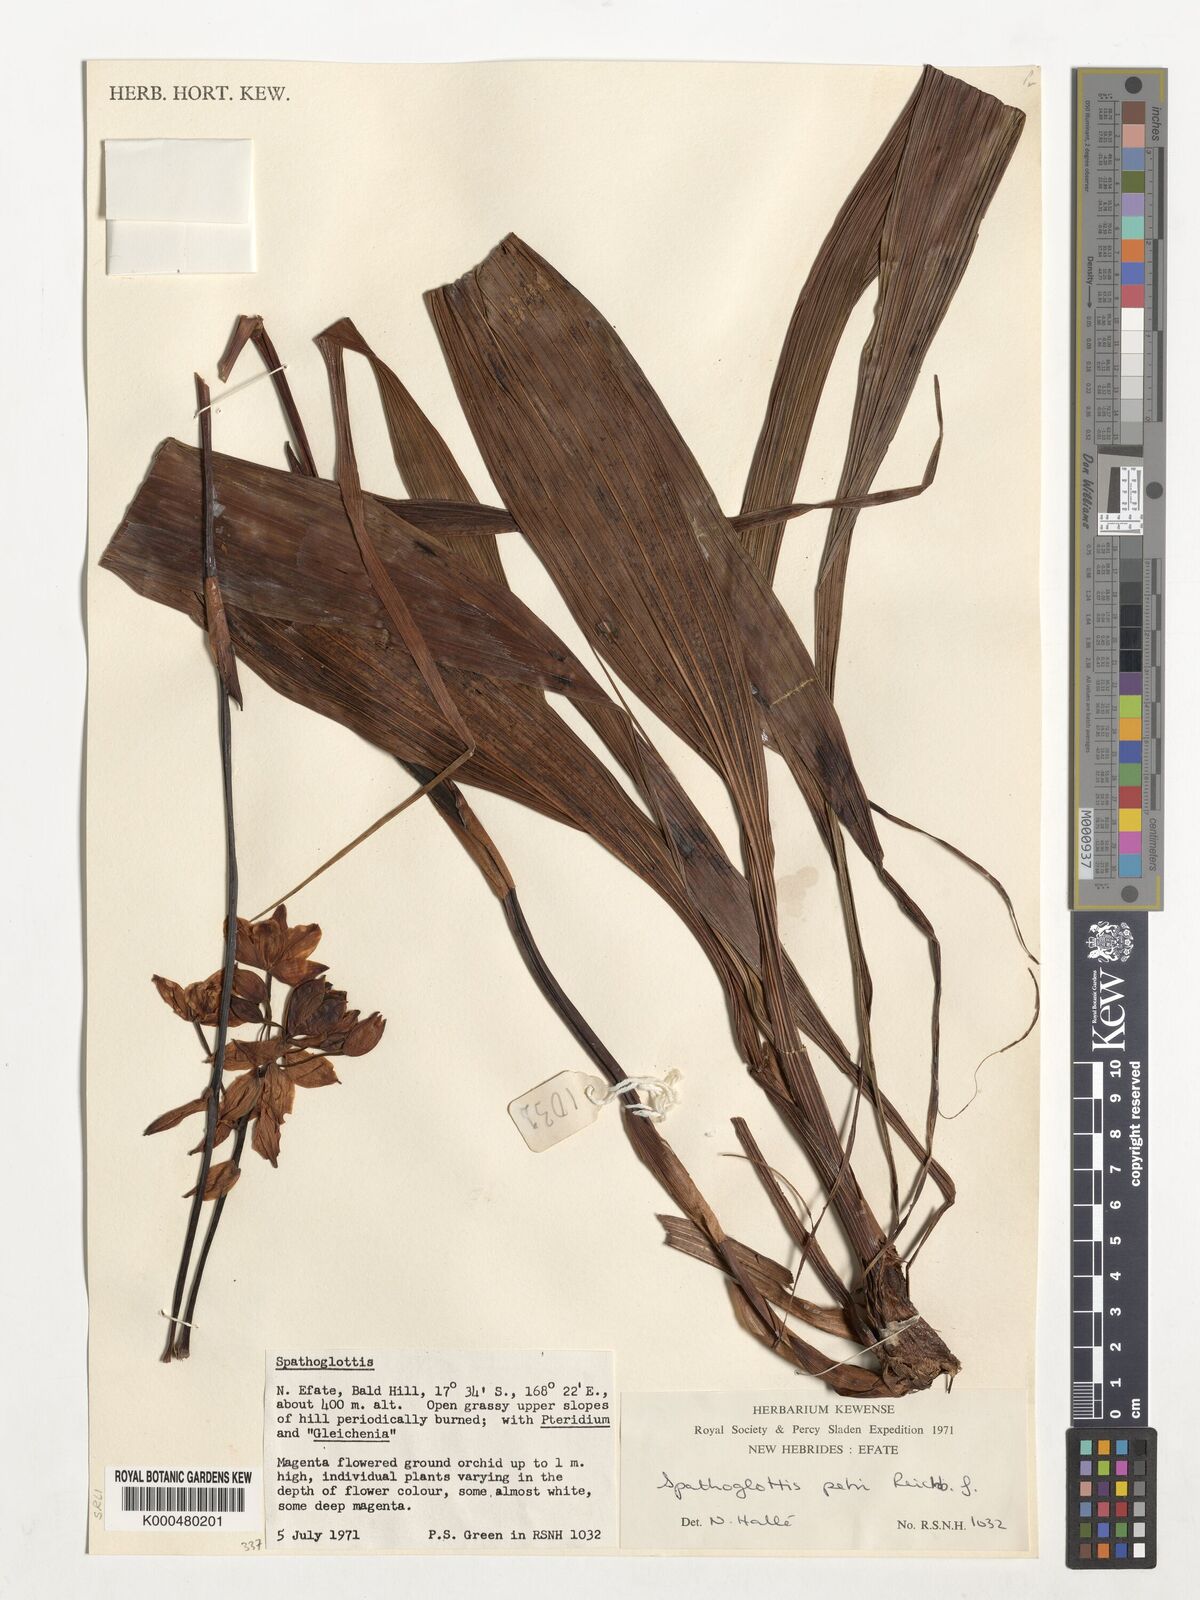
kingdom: Plantae
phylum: Tracheophyta
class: Liliopsida
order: Asparagales
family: Orchidaceae
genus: Spathoglottis
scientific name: Spathoglottis petri
